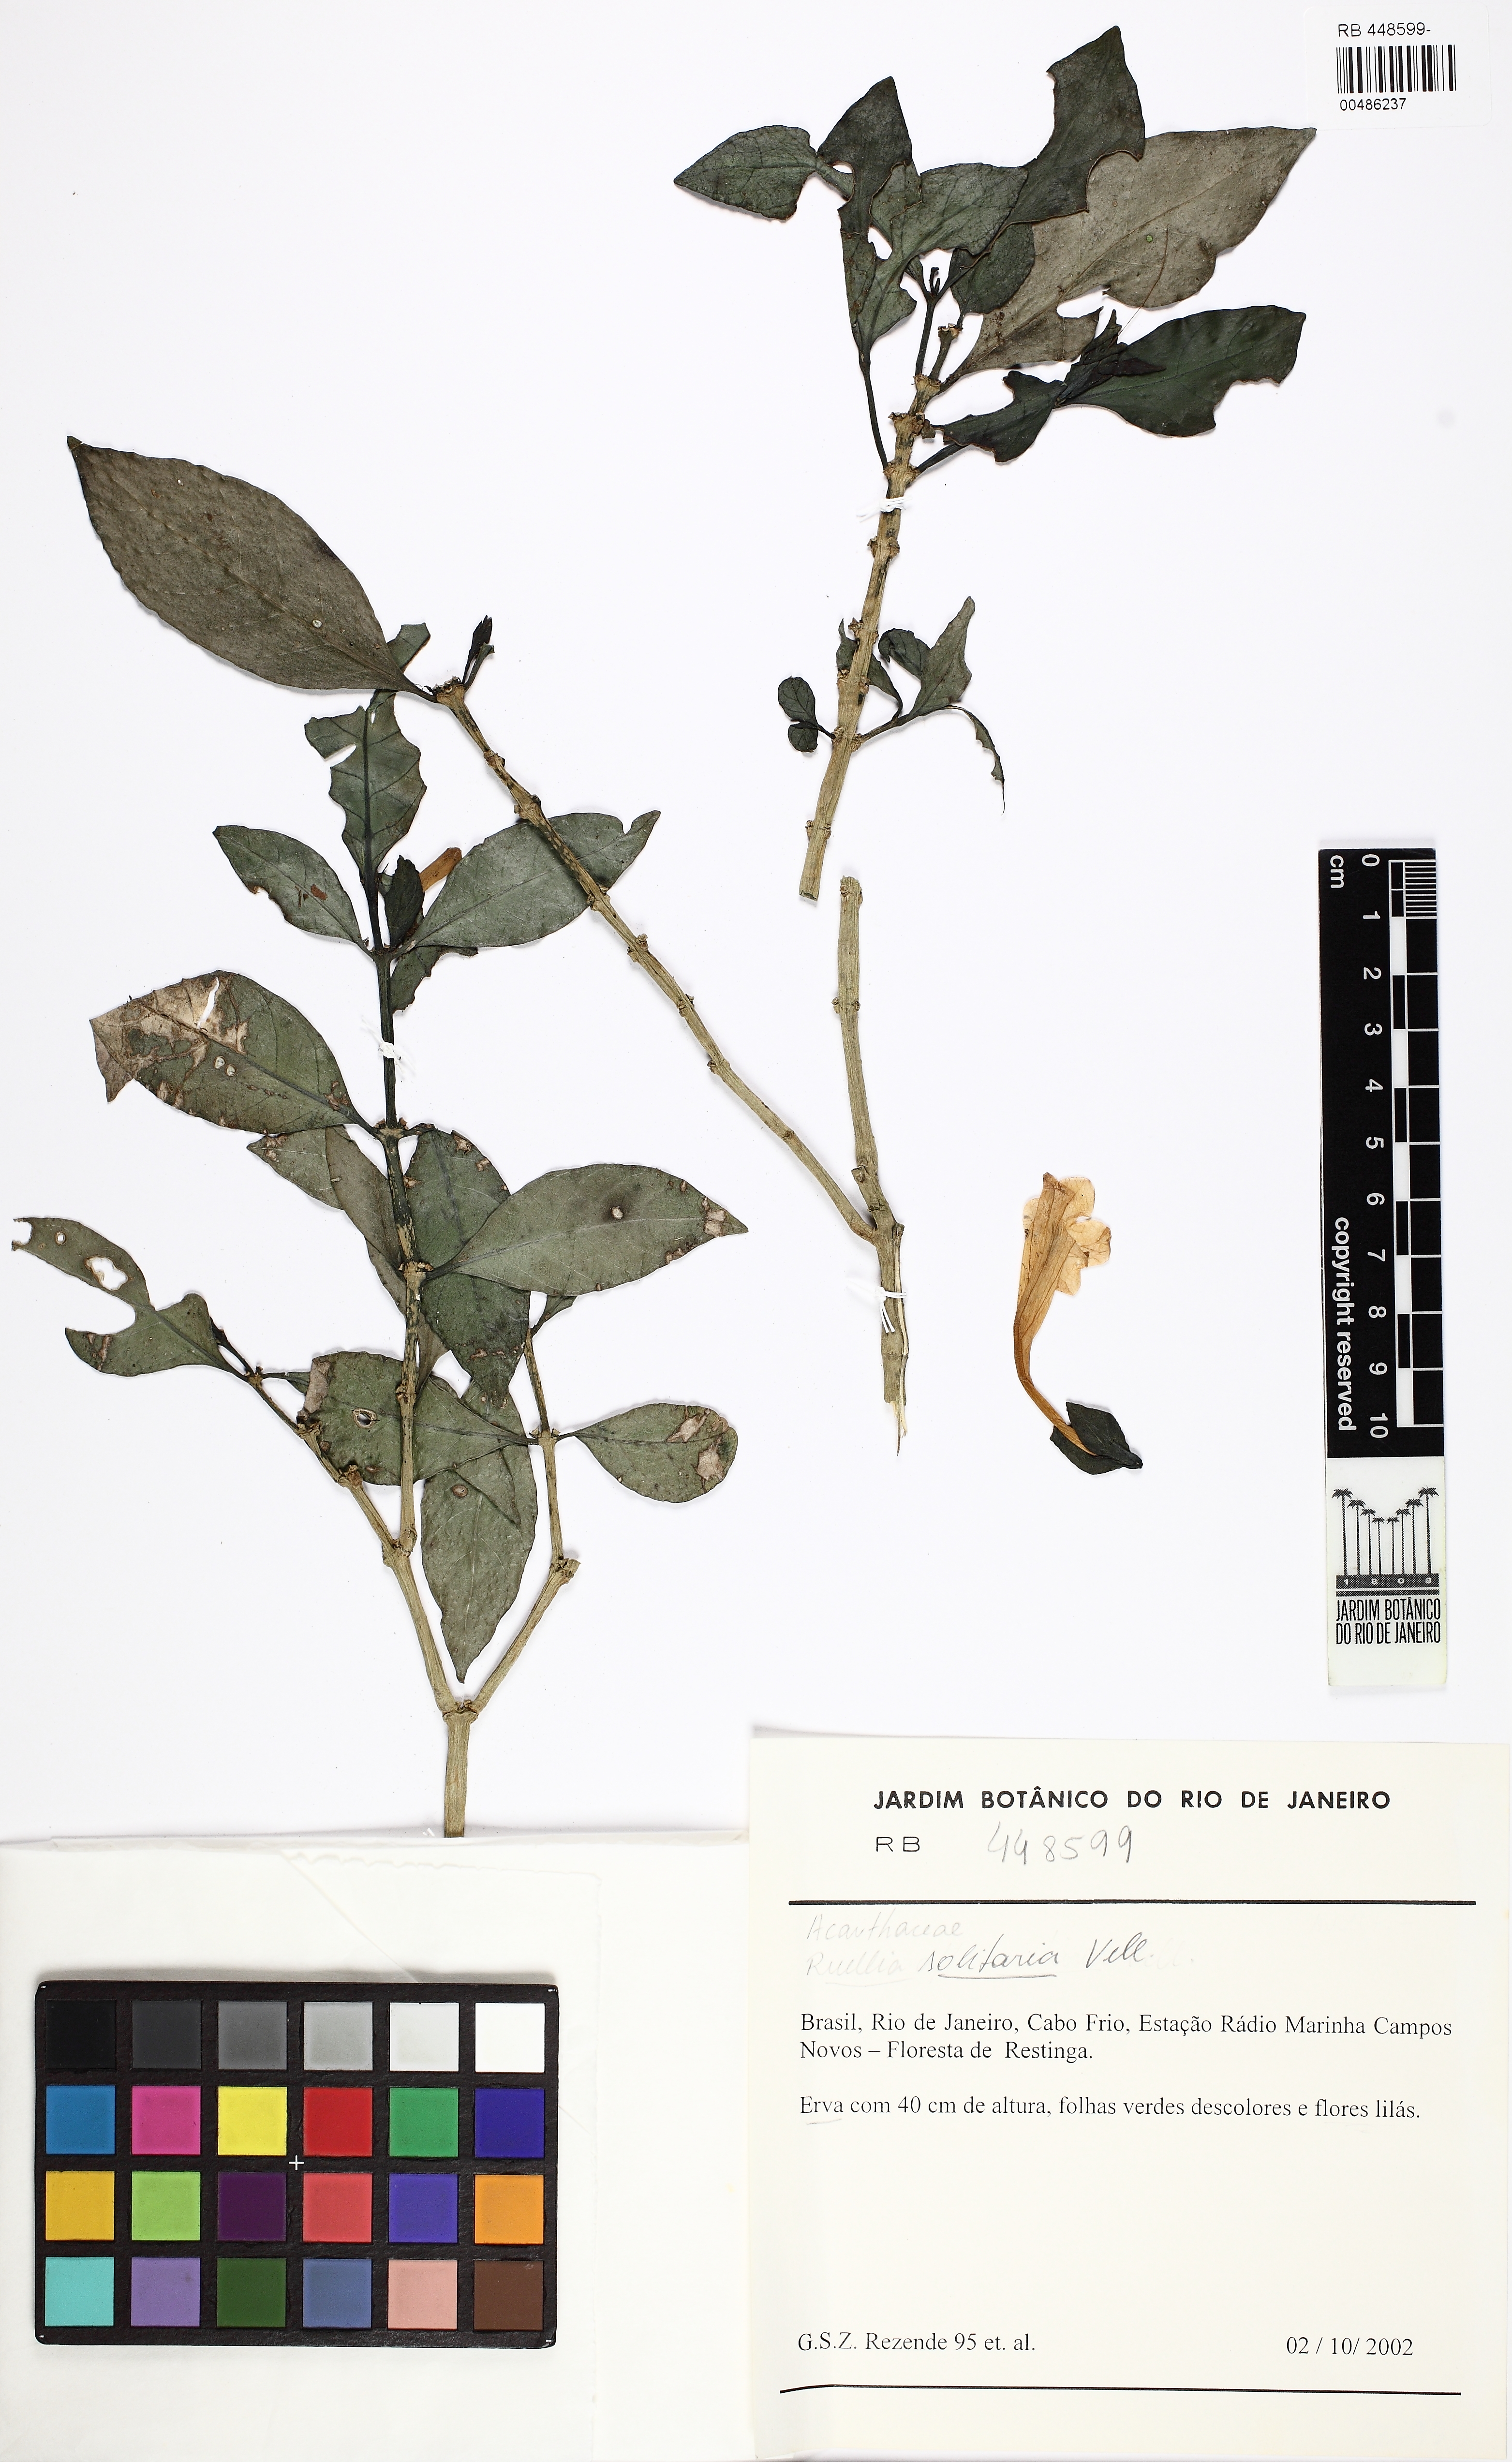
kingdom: Plantae
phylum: Tracheophyta
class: Magnoliopsida
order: Lamiales
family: Acanthaceae
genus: Ruellia
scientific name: Ruellia solitaria
